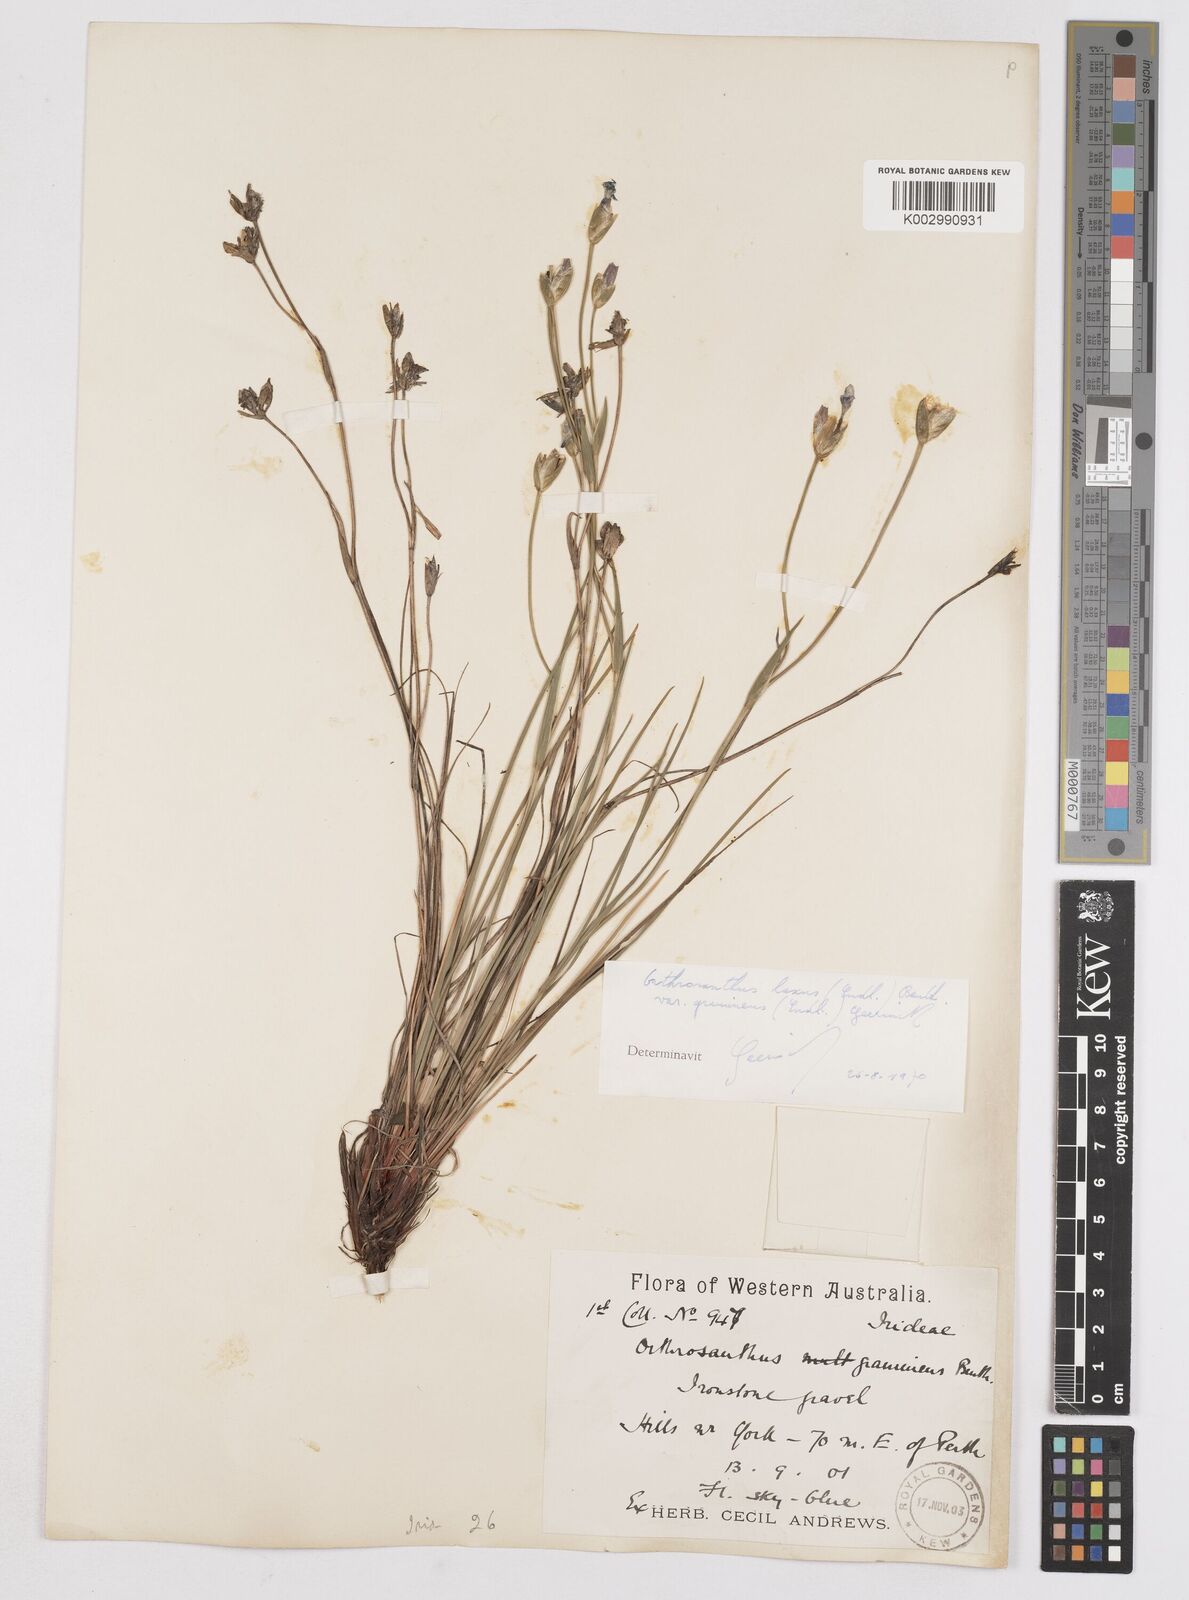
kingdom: Plantae
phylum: Tracheophyta
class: Liliopsida
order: Asparagales
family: Iridaceae
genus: Orthrosanthus
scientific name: Orthrosanthus laxus
